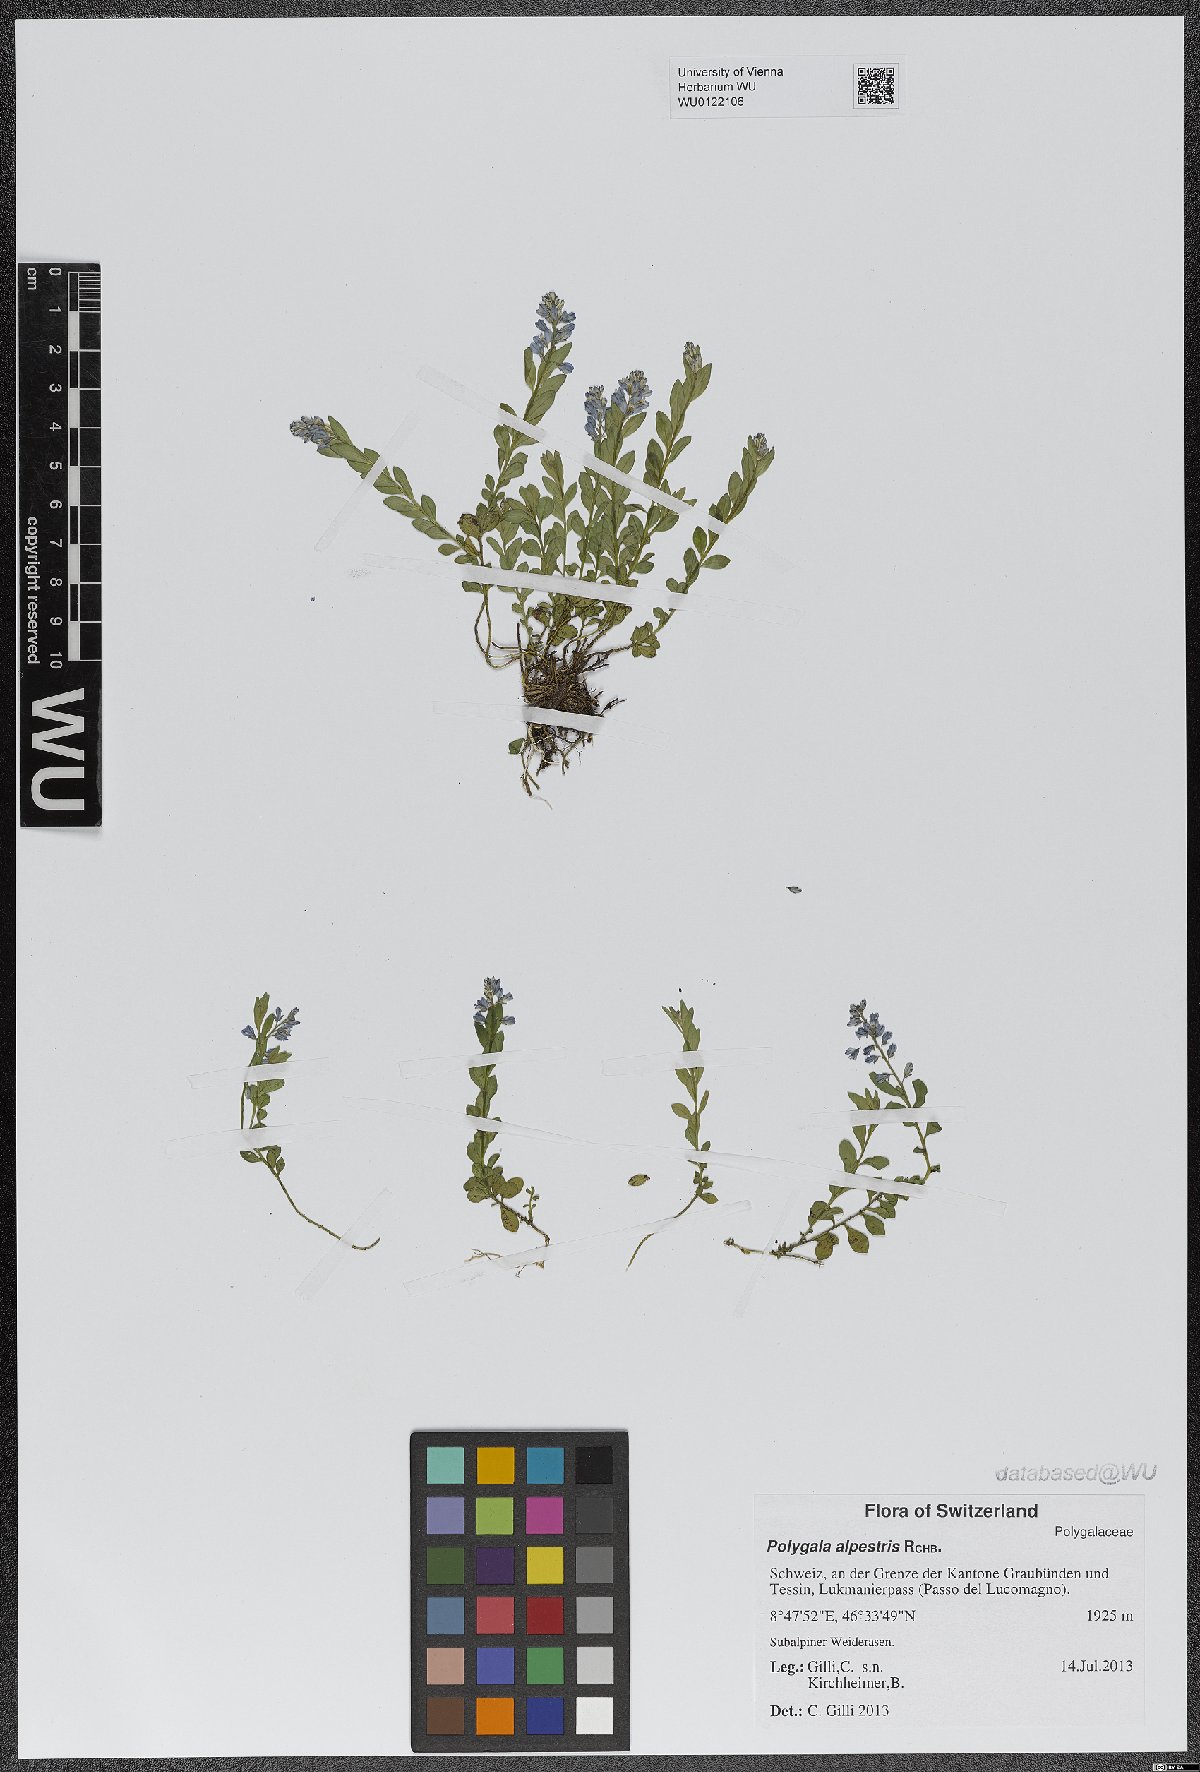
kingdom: Plantae
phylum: Tracheophyta
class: Magnoliopsida
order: Fabales
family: Polygalaceae
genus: Polygala
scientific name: Polygala alpestris
